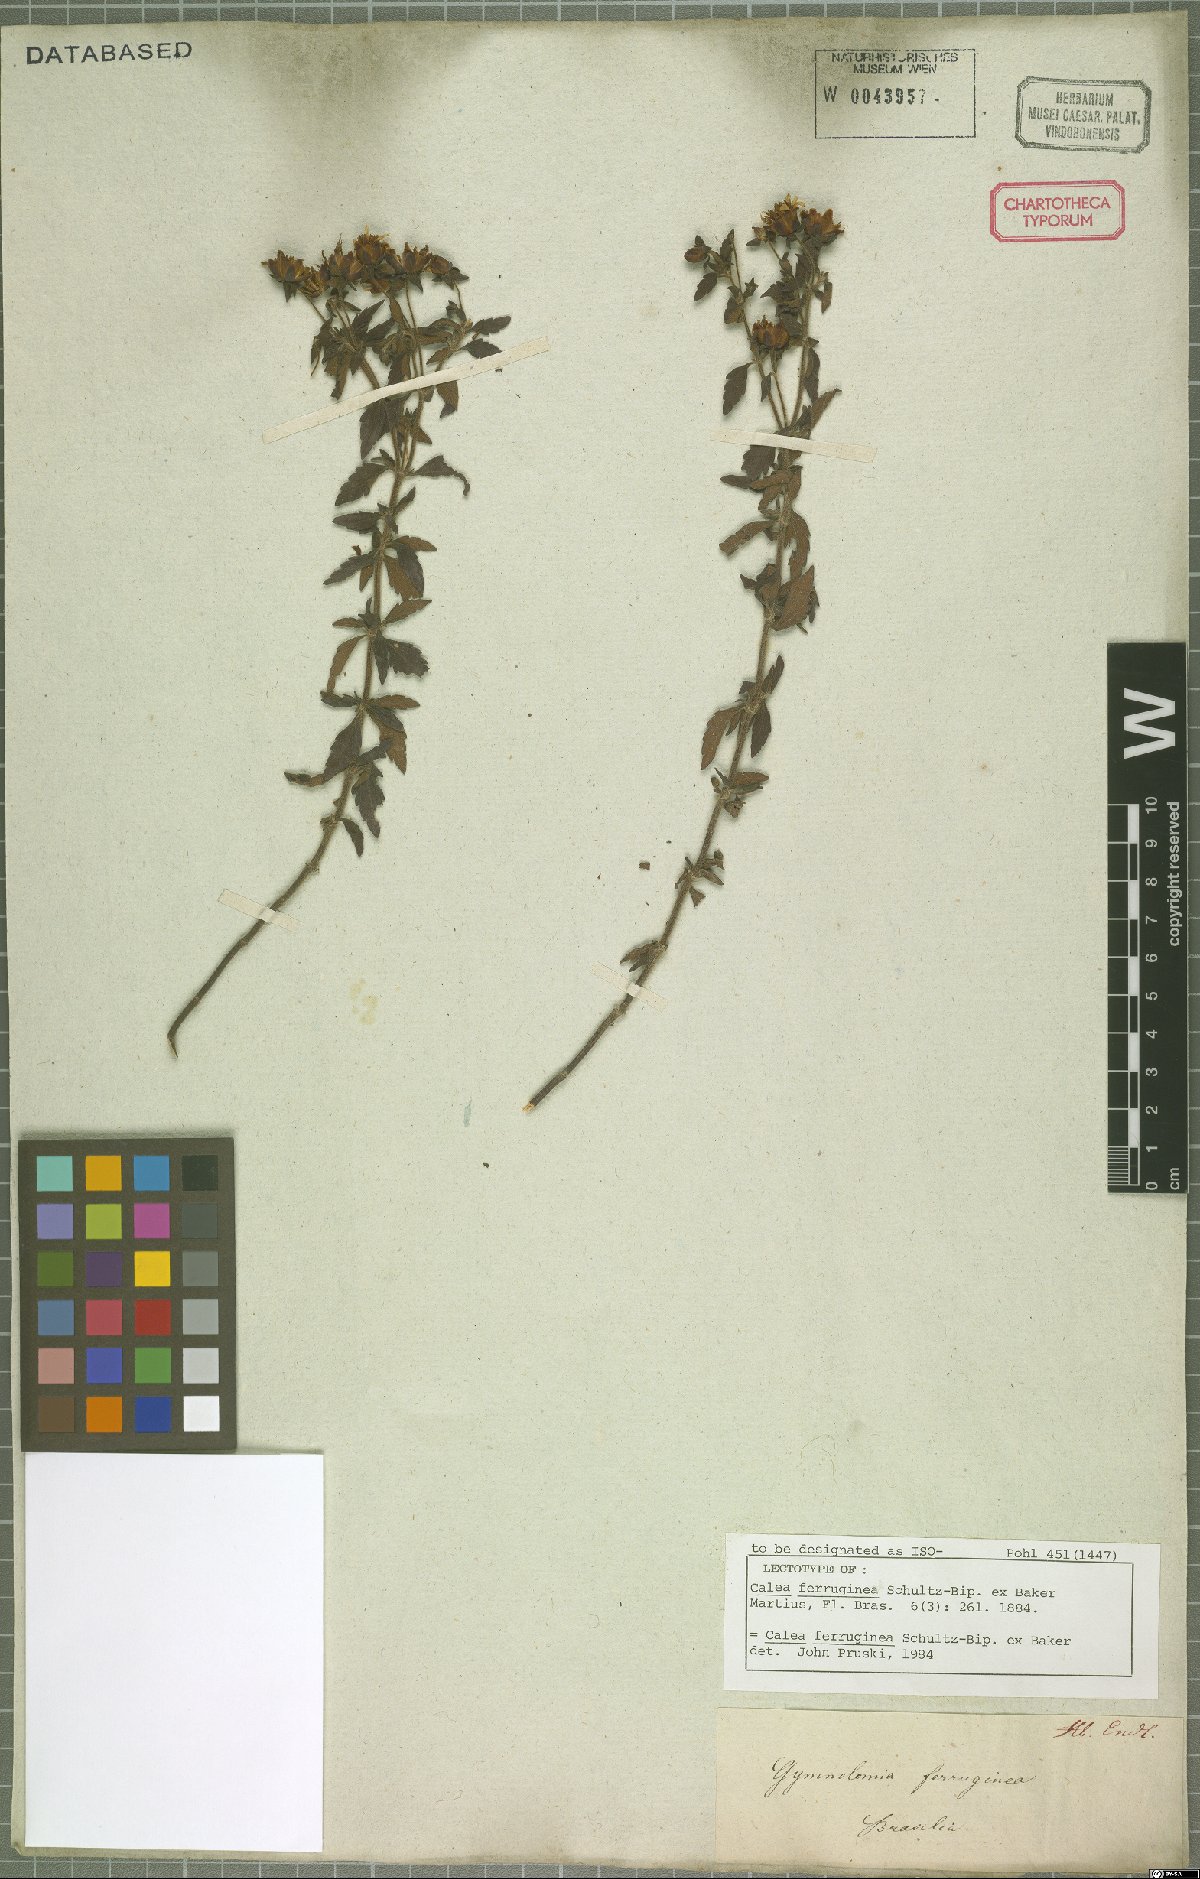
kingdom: Plantae
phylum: Tracheophyta
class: Magnoliopsida
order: Asterales
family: Asteraceae
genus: Calea
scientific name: Calea ferruginea
